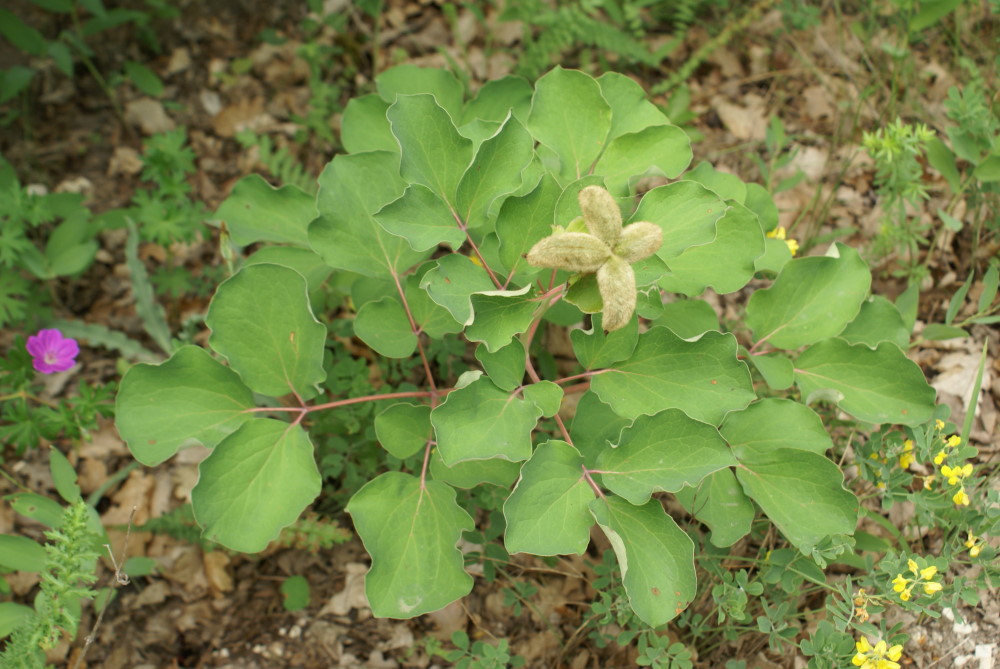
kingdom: Plantae
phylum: Tracheophyta
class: Magnoliopsida
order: Saxifragales
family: Paeoniaceae
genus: Paeonia
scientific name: Paeonia daurica
